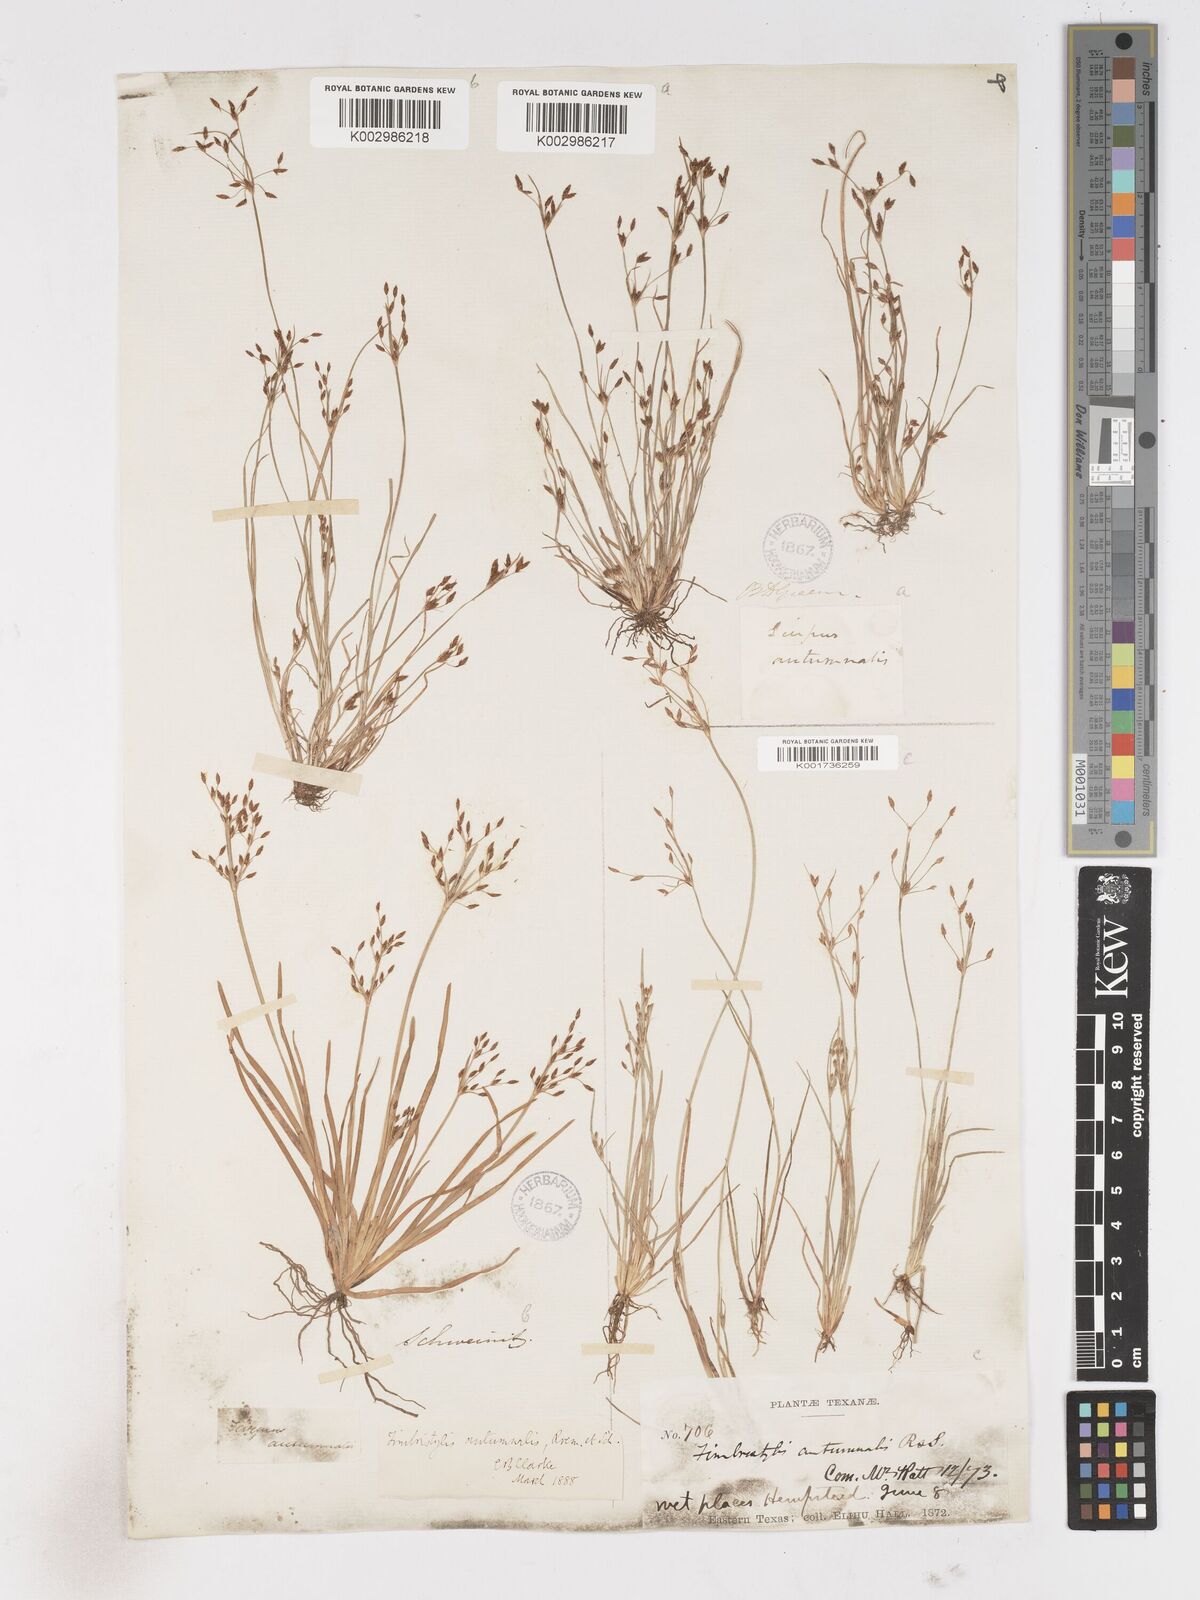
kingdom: Plantae
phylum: Tracheophyta
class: Liliopsida
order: Poales
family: Cyperaceae
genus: Fimbristylis
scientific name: Fimbristylis autumnalis
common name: Slender fimbristylis
